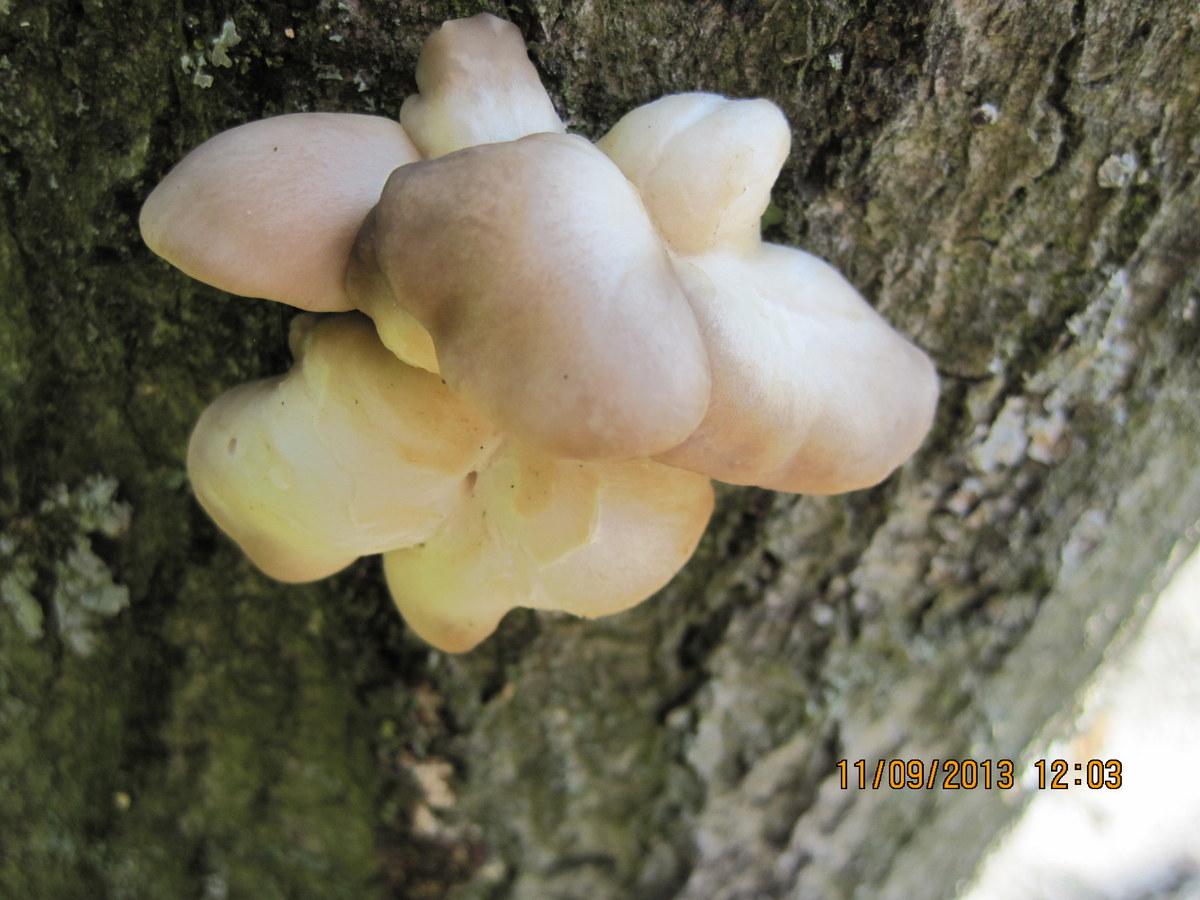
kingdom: Fungi
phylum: Basidiomycota
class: Agaricomycetes
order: Agaricales
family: Pleurotaceae
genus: Pleurotus
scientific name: Pleurotus pulmonarius
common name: sommer-østershat
